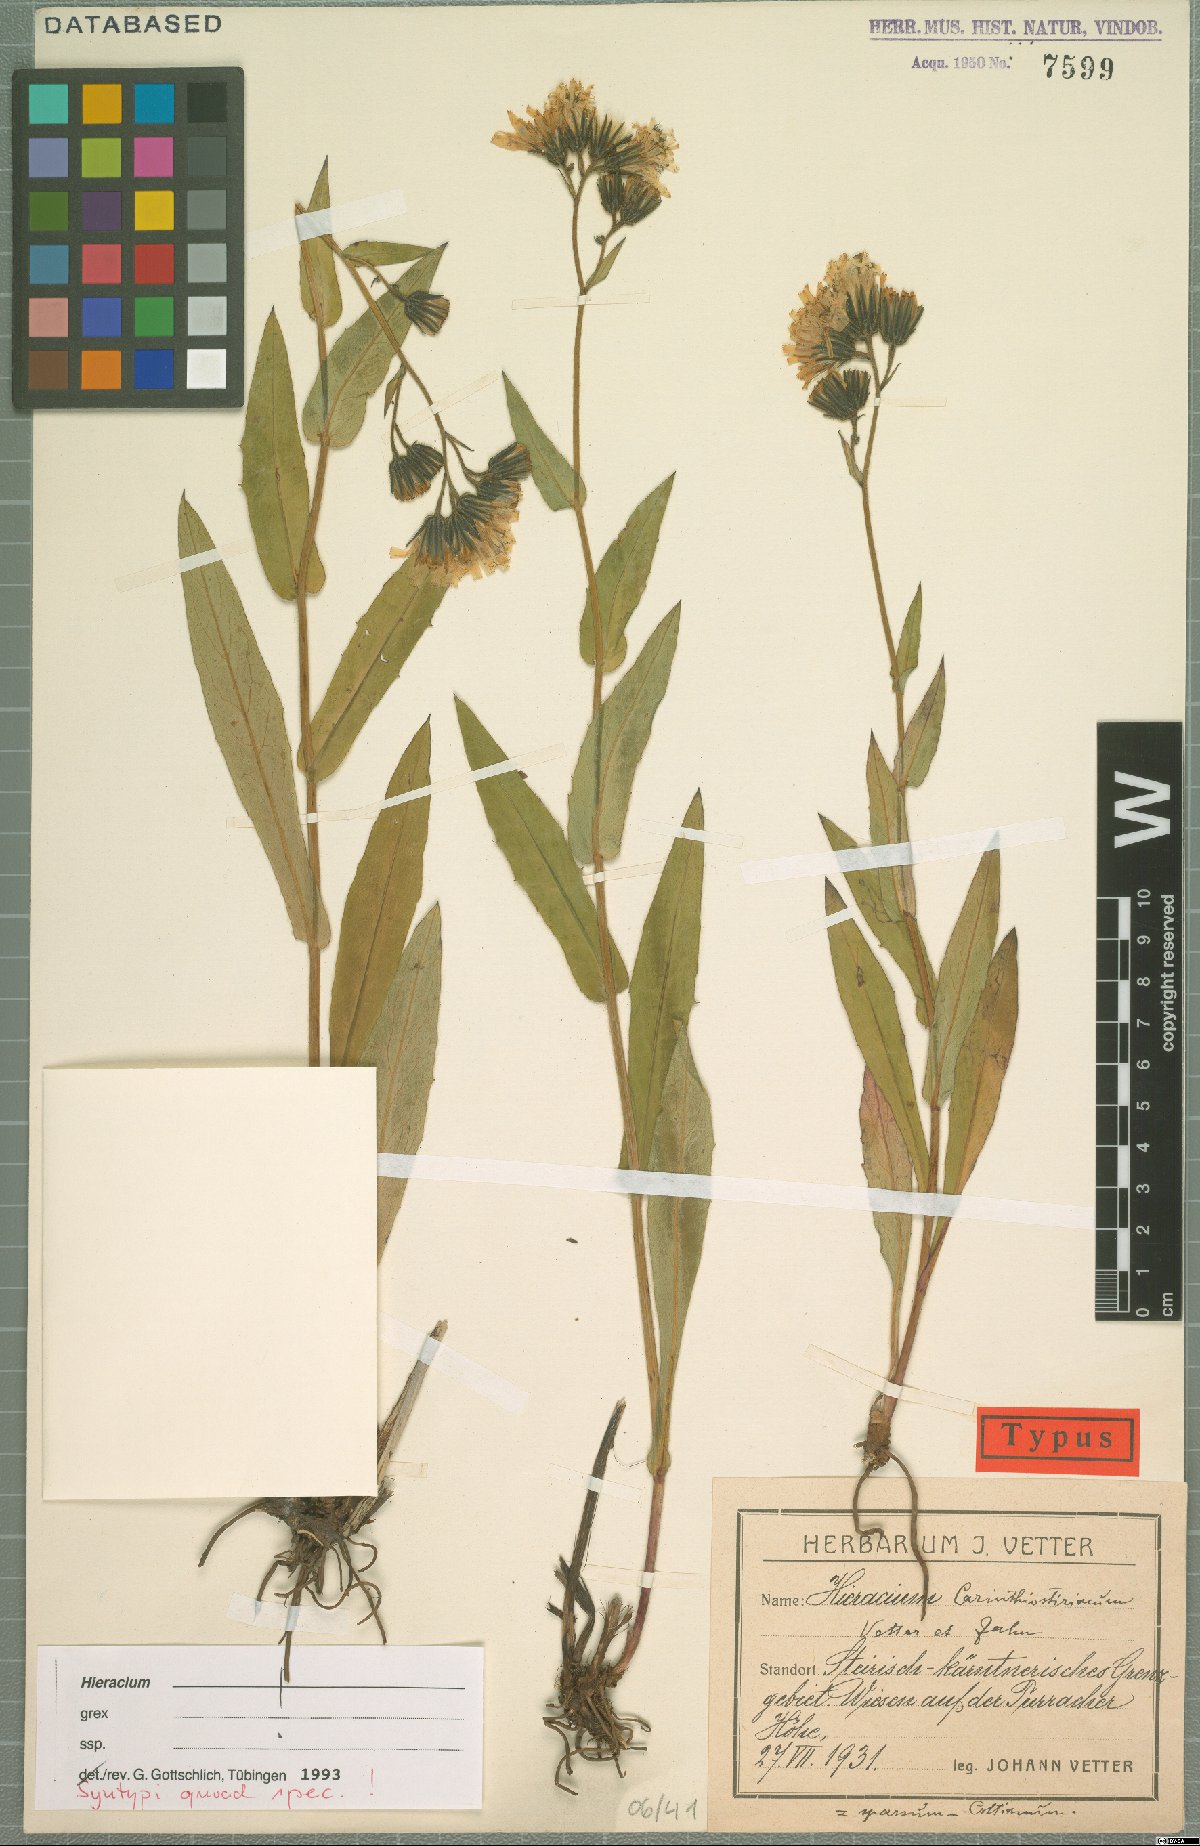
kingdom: Plantae
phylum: Tracheophyta
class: Magnoliopsida
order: Asterales
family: Asteraceae
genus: Hieracium
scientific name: Hieracium carinthiostiriacum
